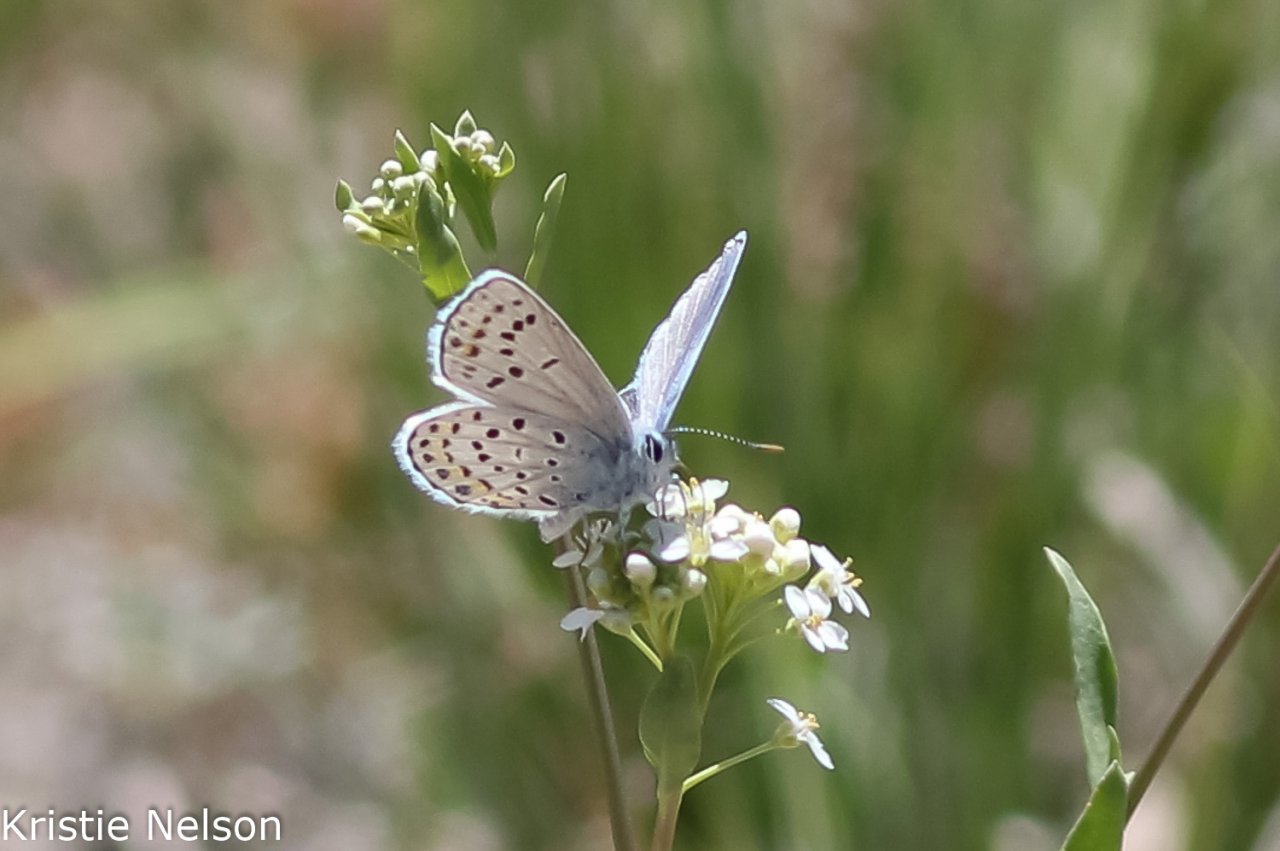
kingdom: Animalia
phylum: Arthropoda
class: Insecta
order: Lepidoptera
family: Lycaenidae
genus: Lycaeides
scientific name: Lycaeides melissa
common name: Melissa Blue
